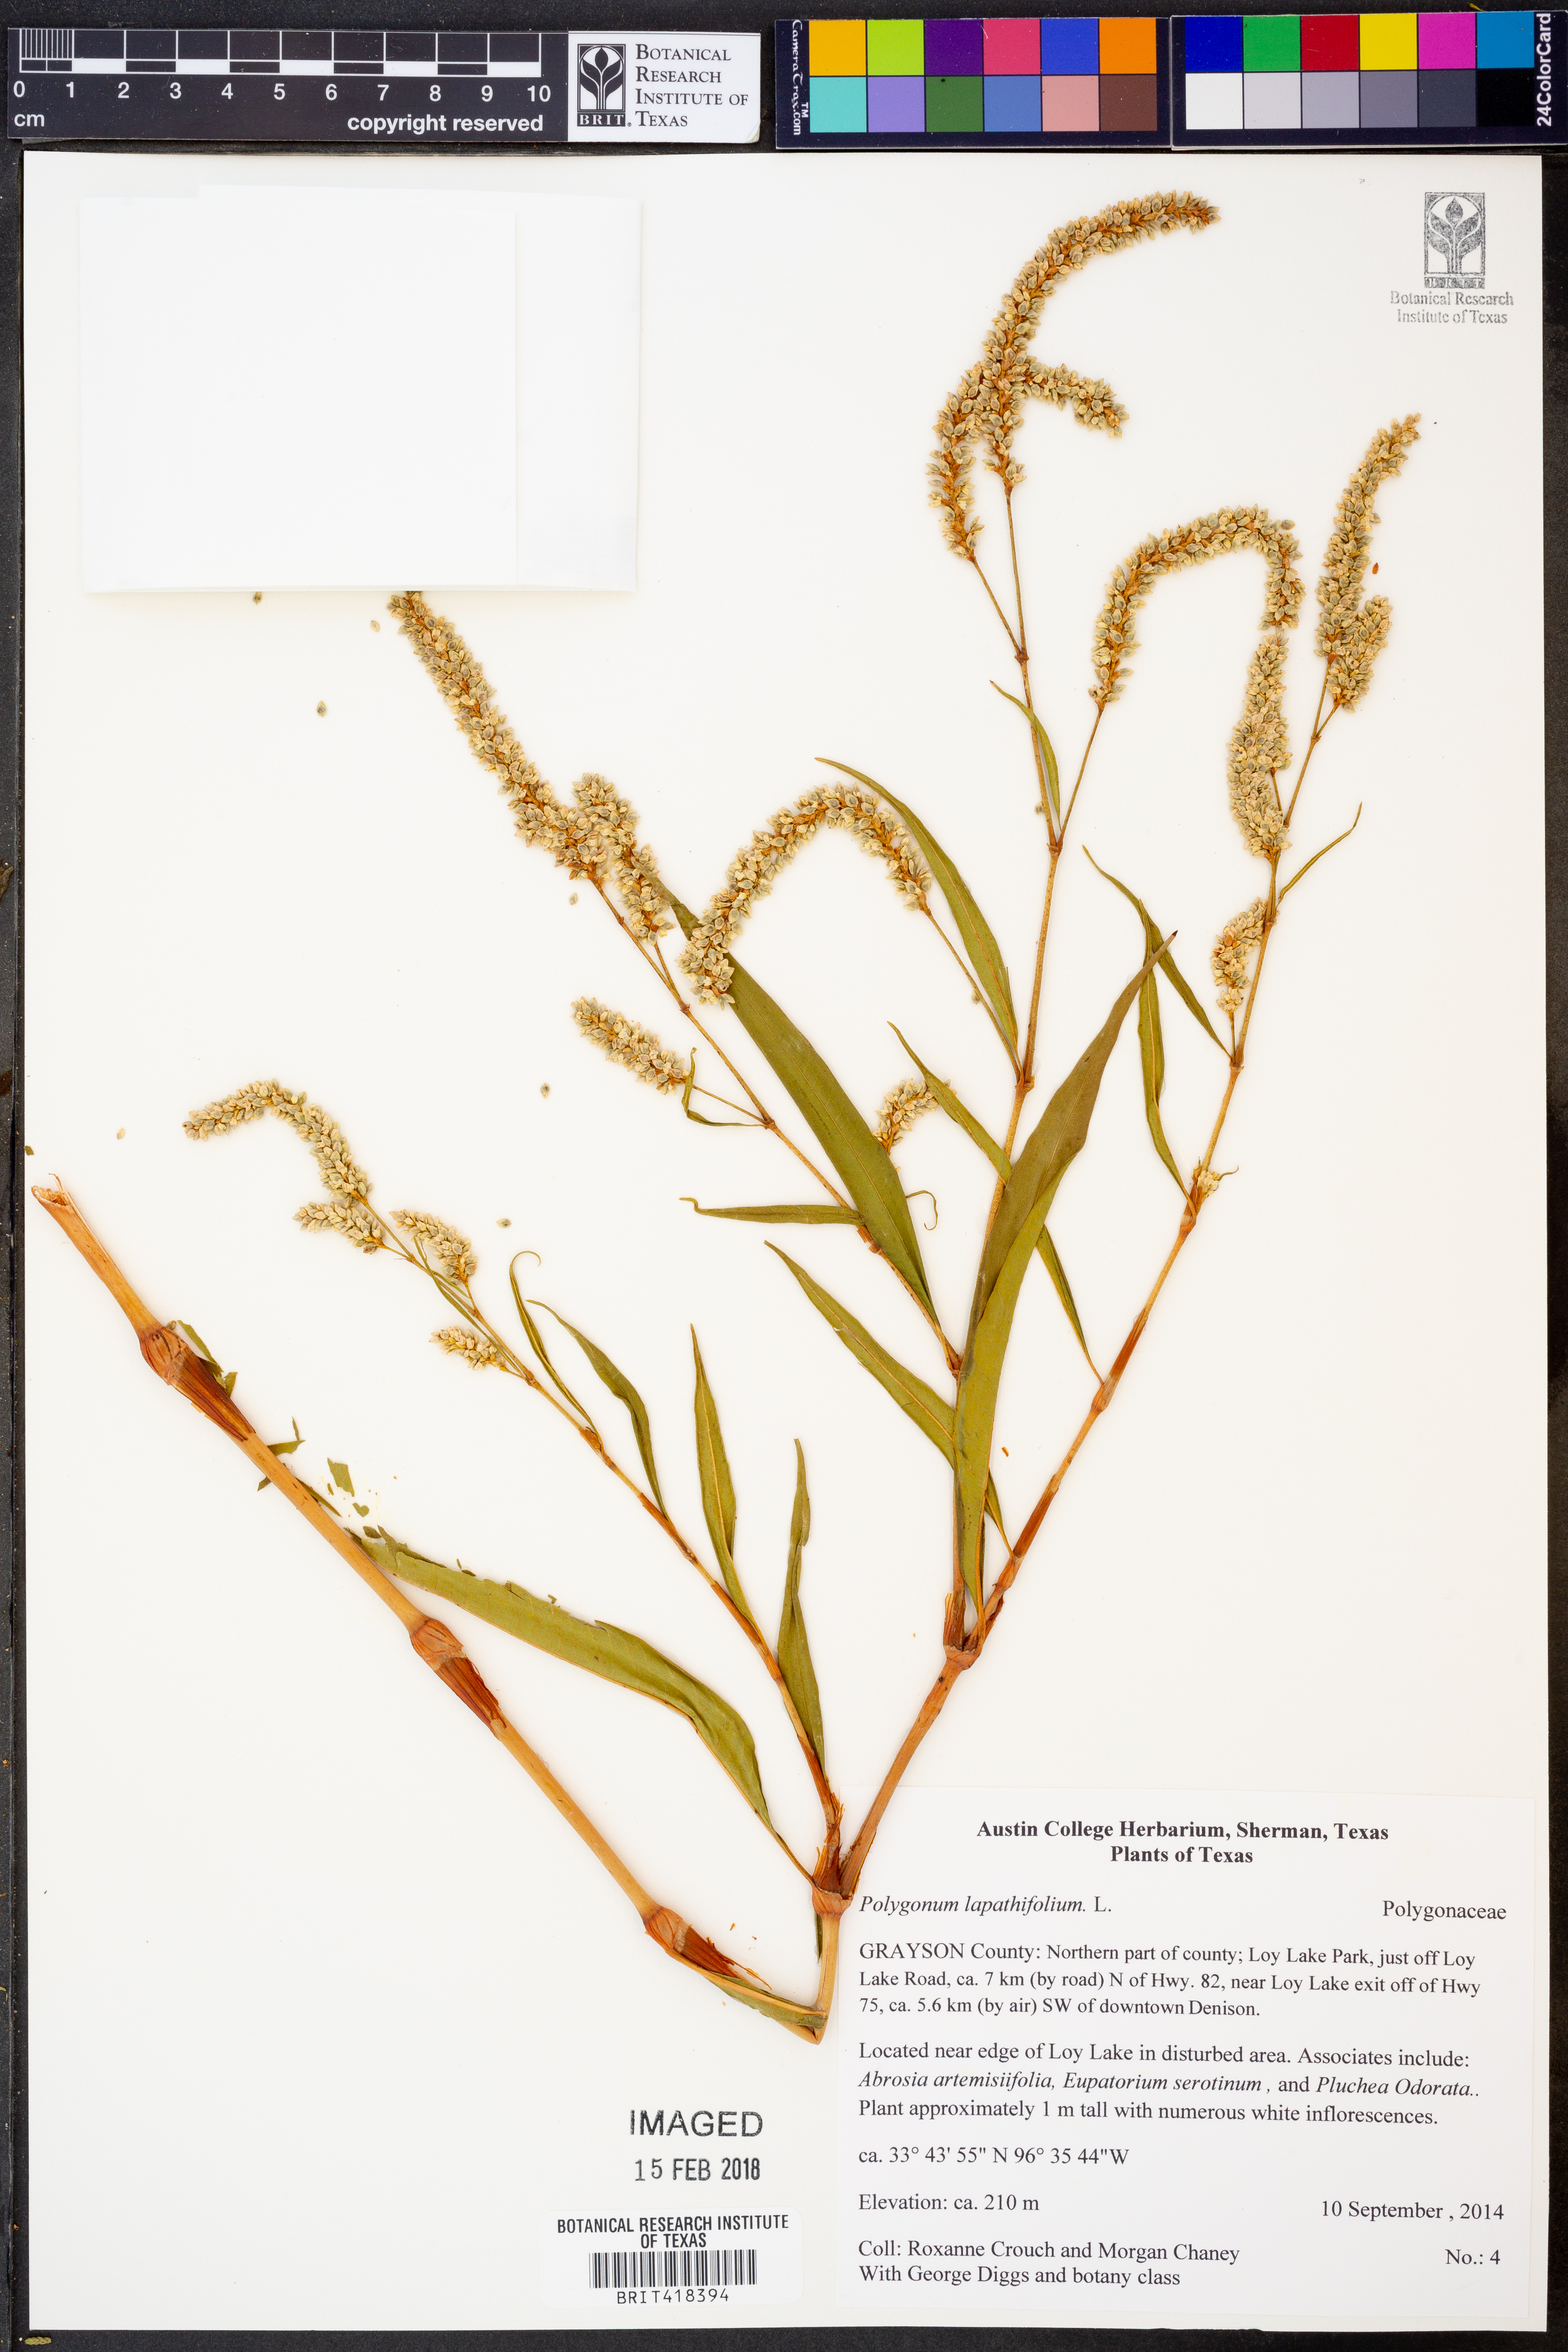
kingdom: Plantae
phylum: Tracheophyta
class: Magnoliopsida
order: Caryophyllales
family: Polygonaceae
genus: Persicaria
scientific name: Persicaria lapathifolia
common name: Curlytop knotweed
